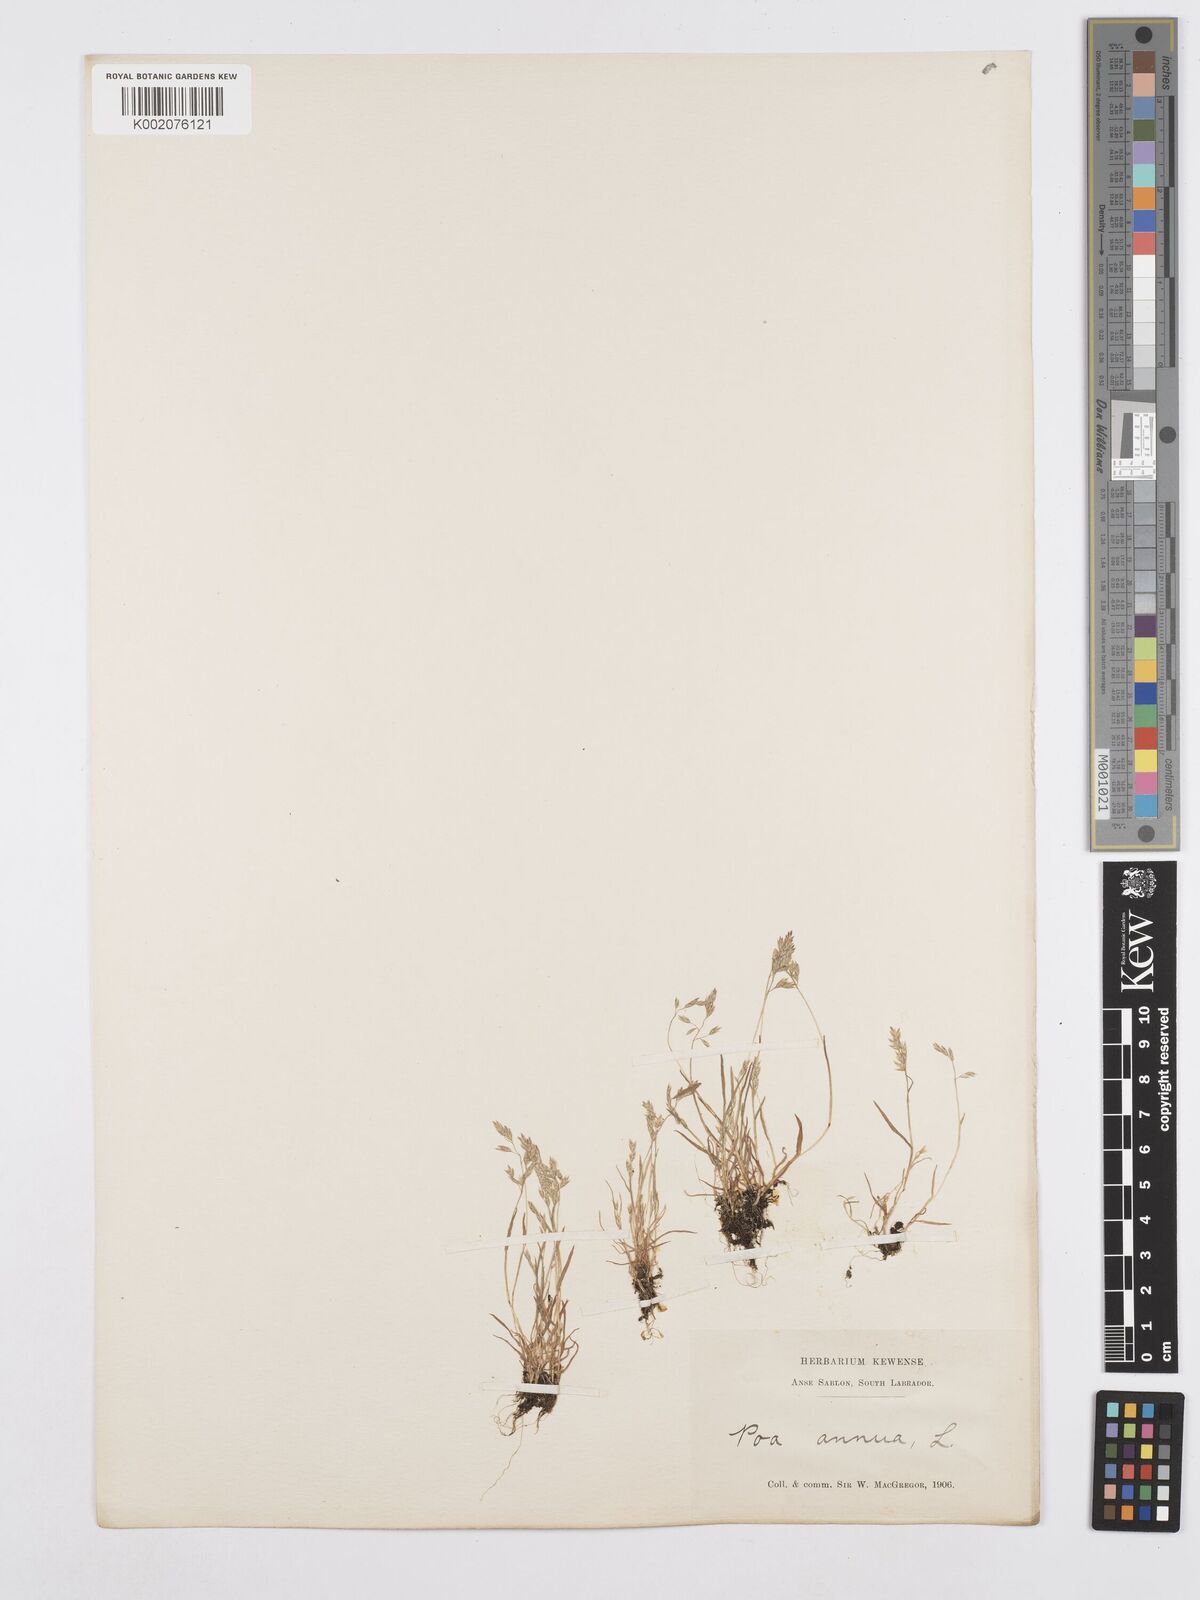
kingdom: Plantae
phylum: Tracheophyta
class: Liliopsida
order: Poales
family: Poaceae
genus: Poa
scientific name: Poa annua
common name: Annual bluegrass
